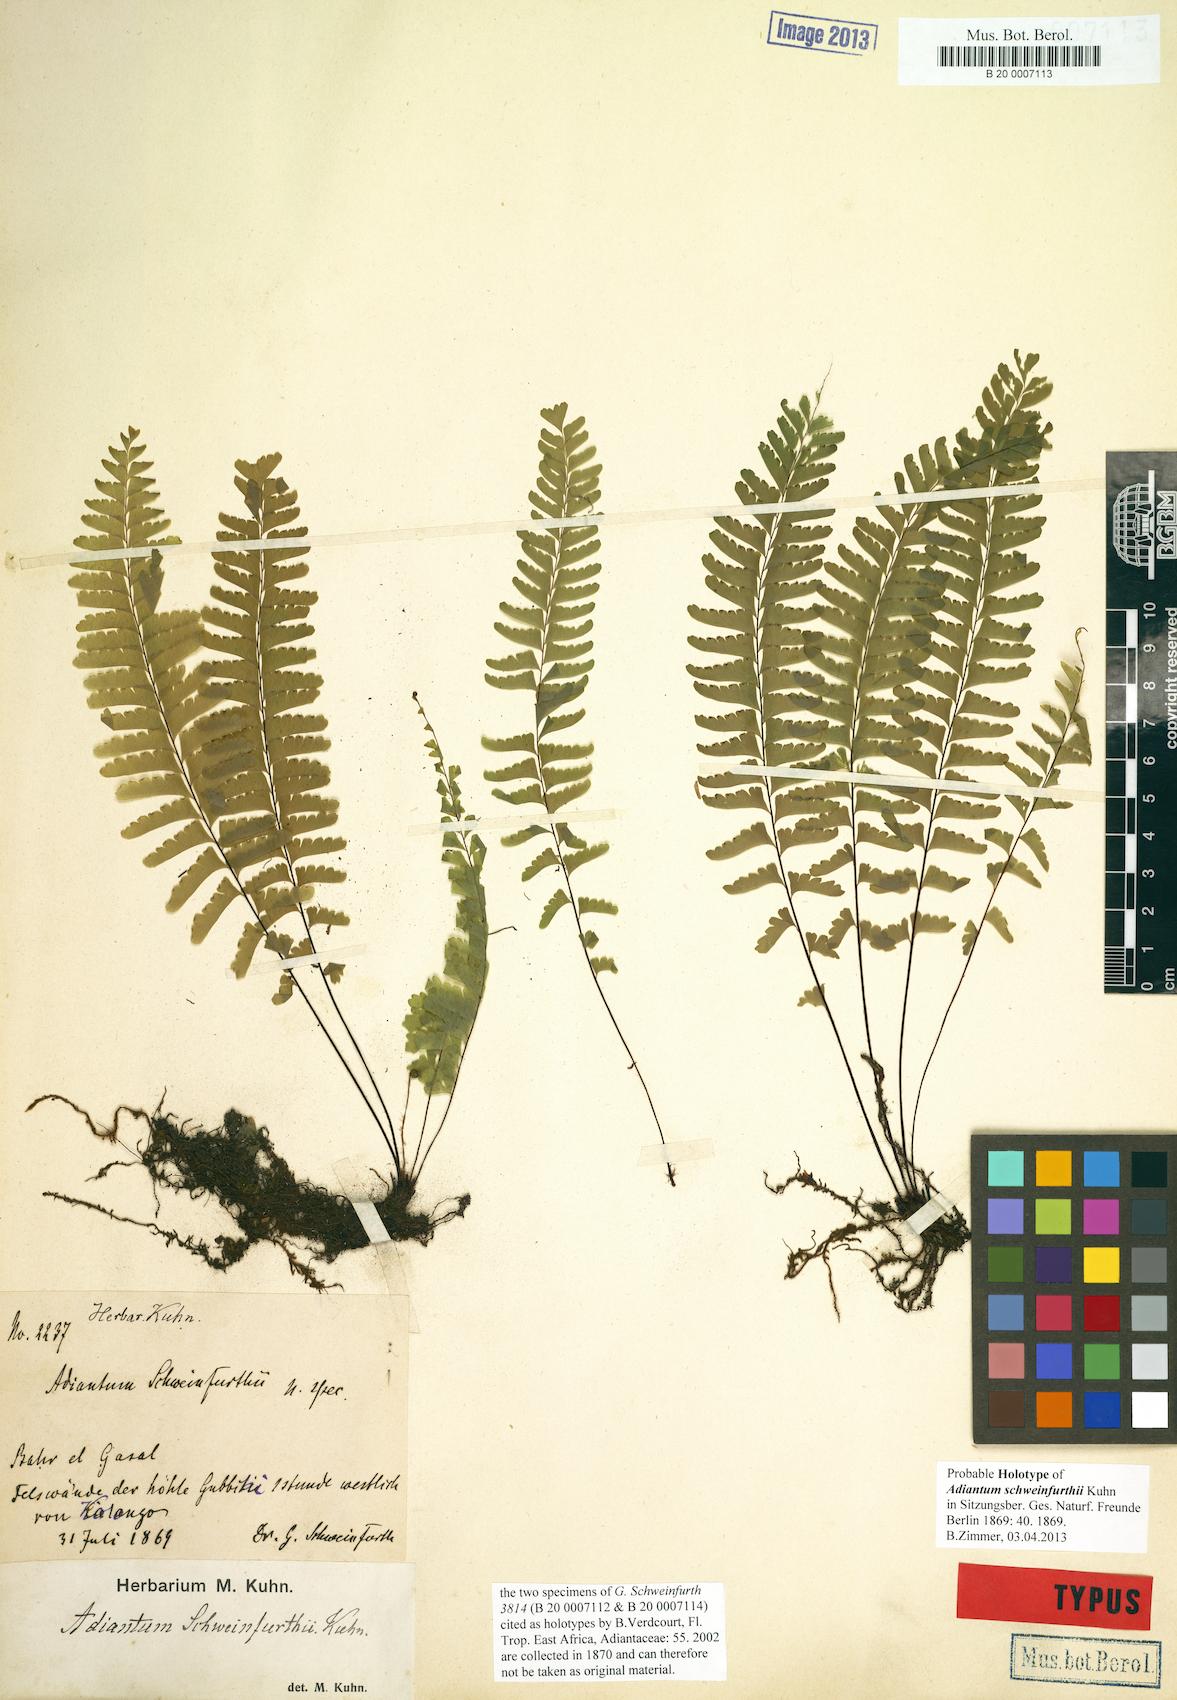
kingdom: Plantae
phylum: Tracheophyta
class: Polypodiopsida
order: Polypodiales
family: Pteridaceae
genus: Adiantum
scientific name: Adiantum schweinfurthii
